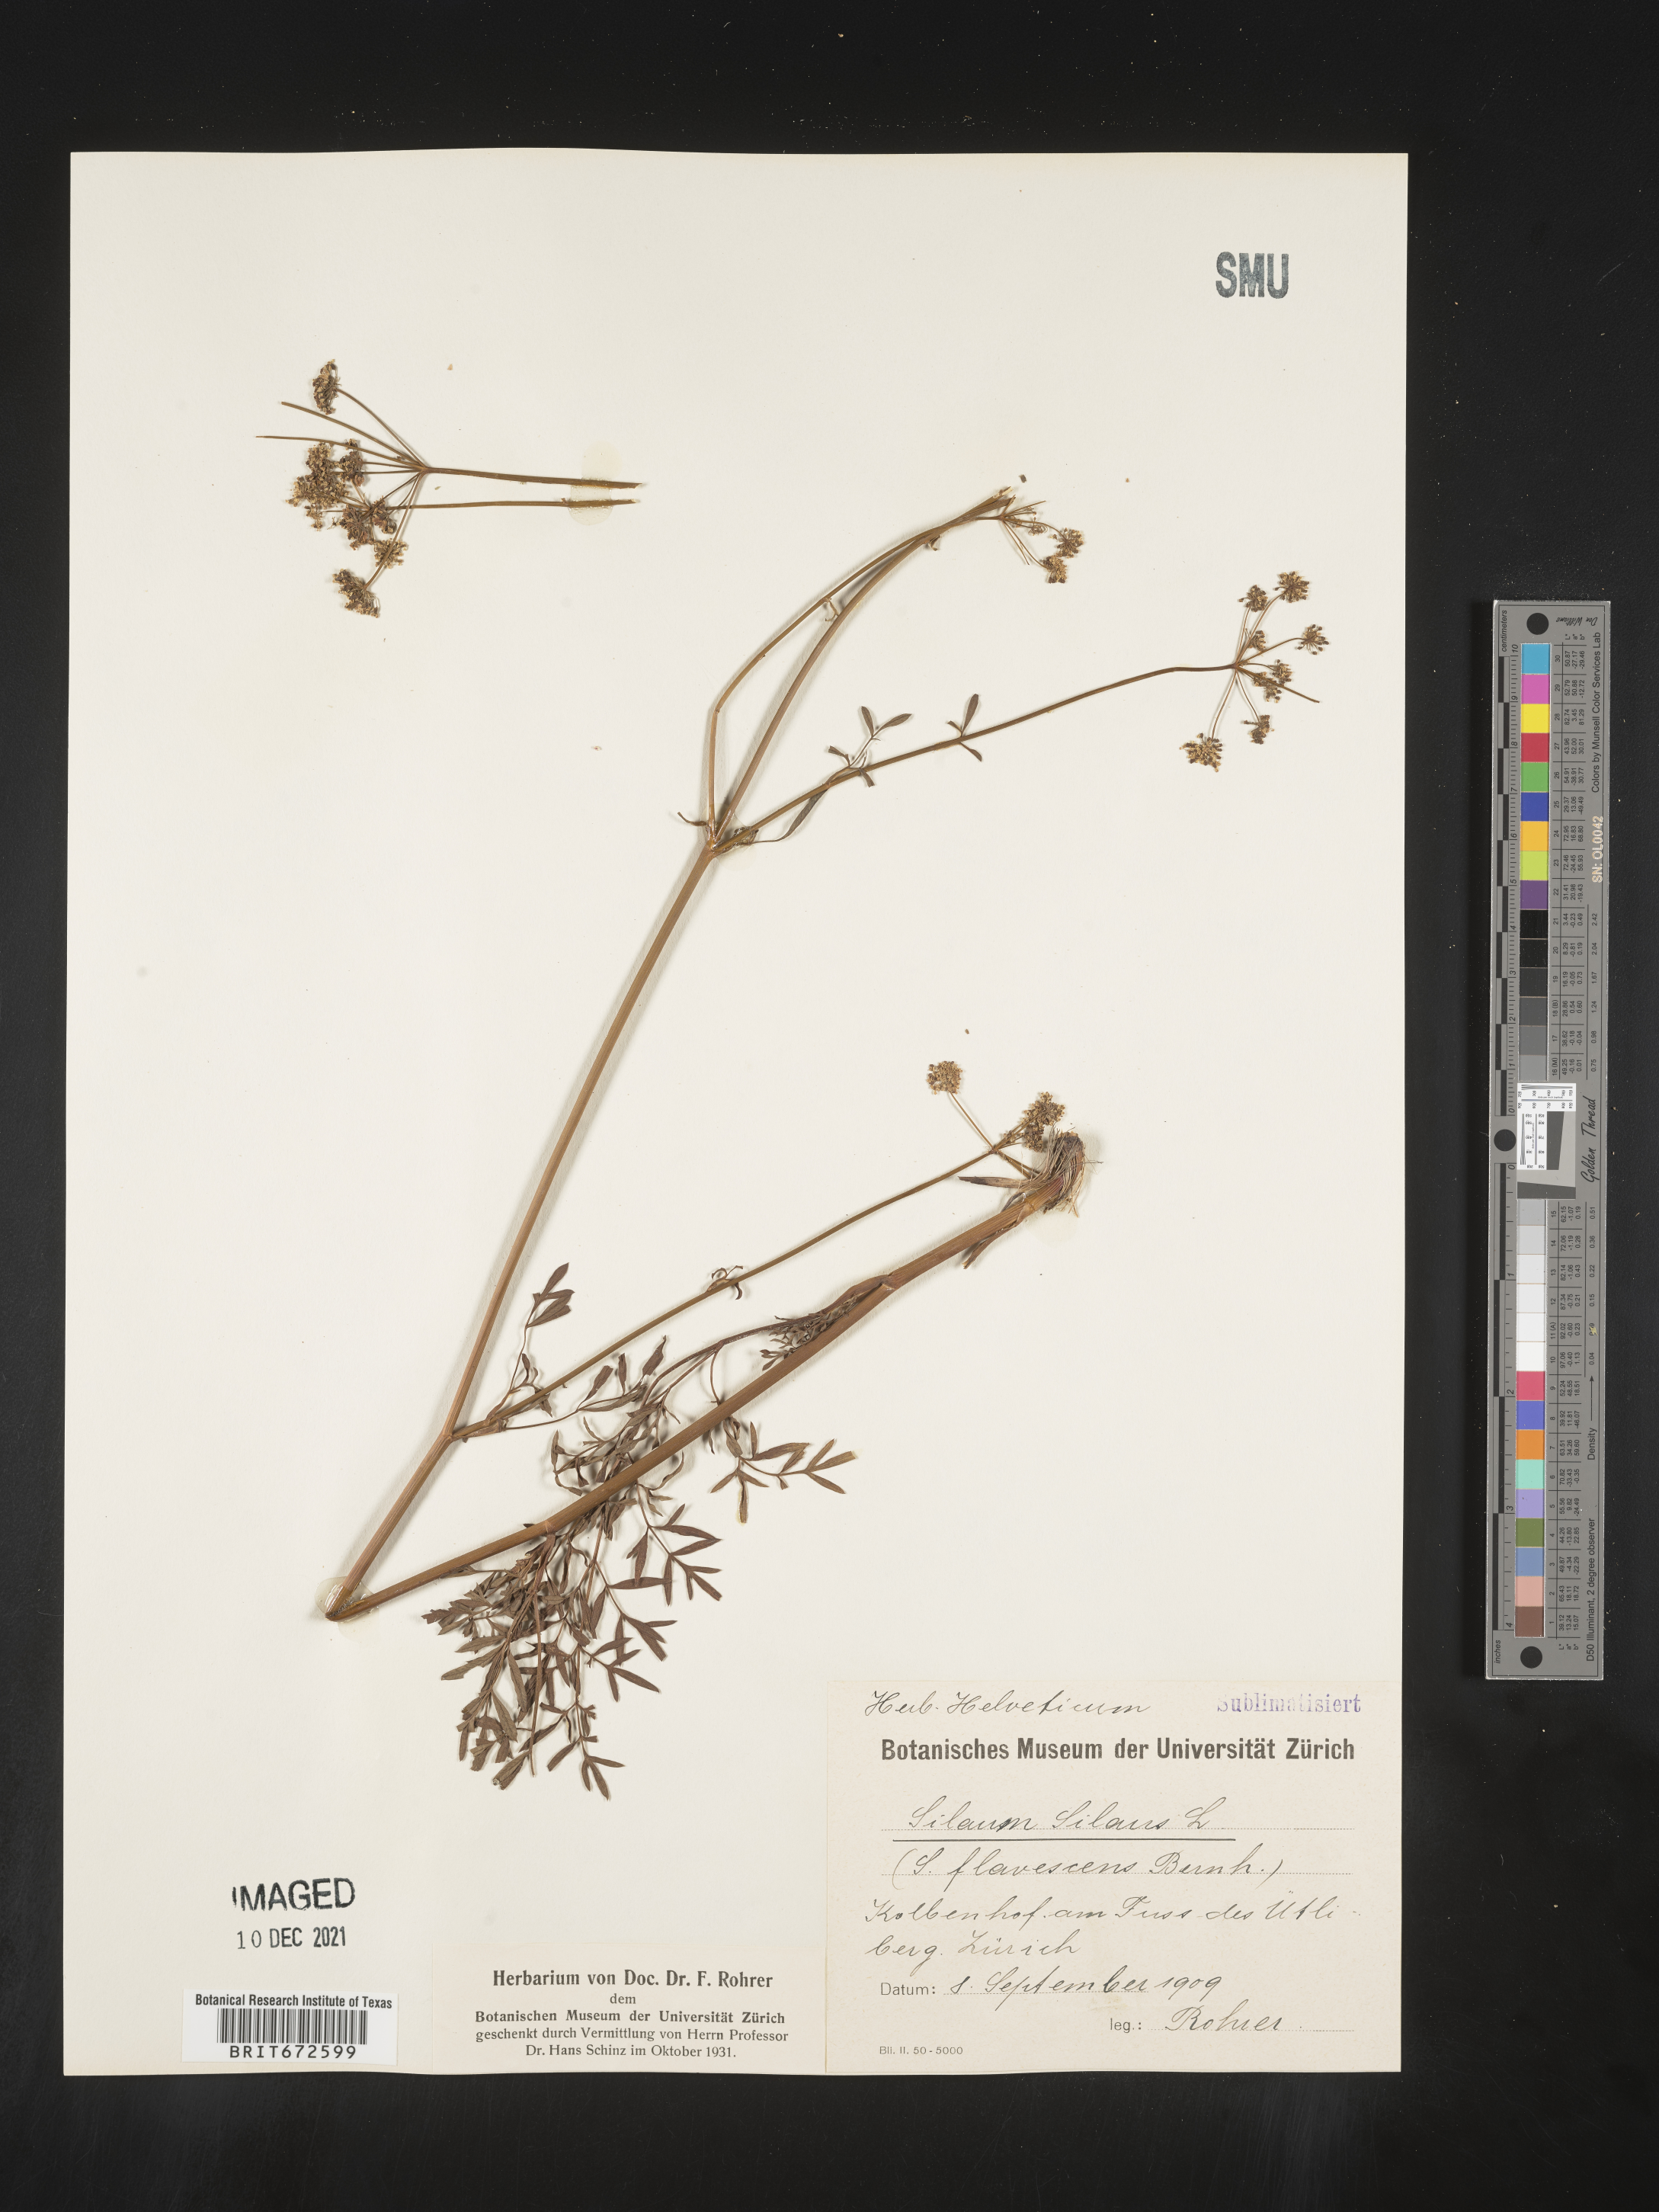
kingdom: Plantae
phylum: Tracheophyta
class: Magnoliopsida
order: Apiales
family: Apiaceae
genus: Silaum
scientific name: Silaum
